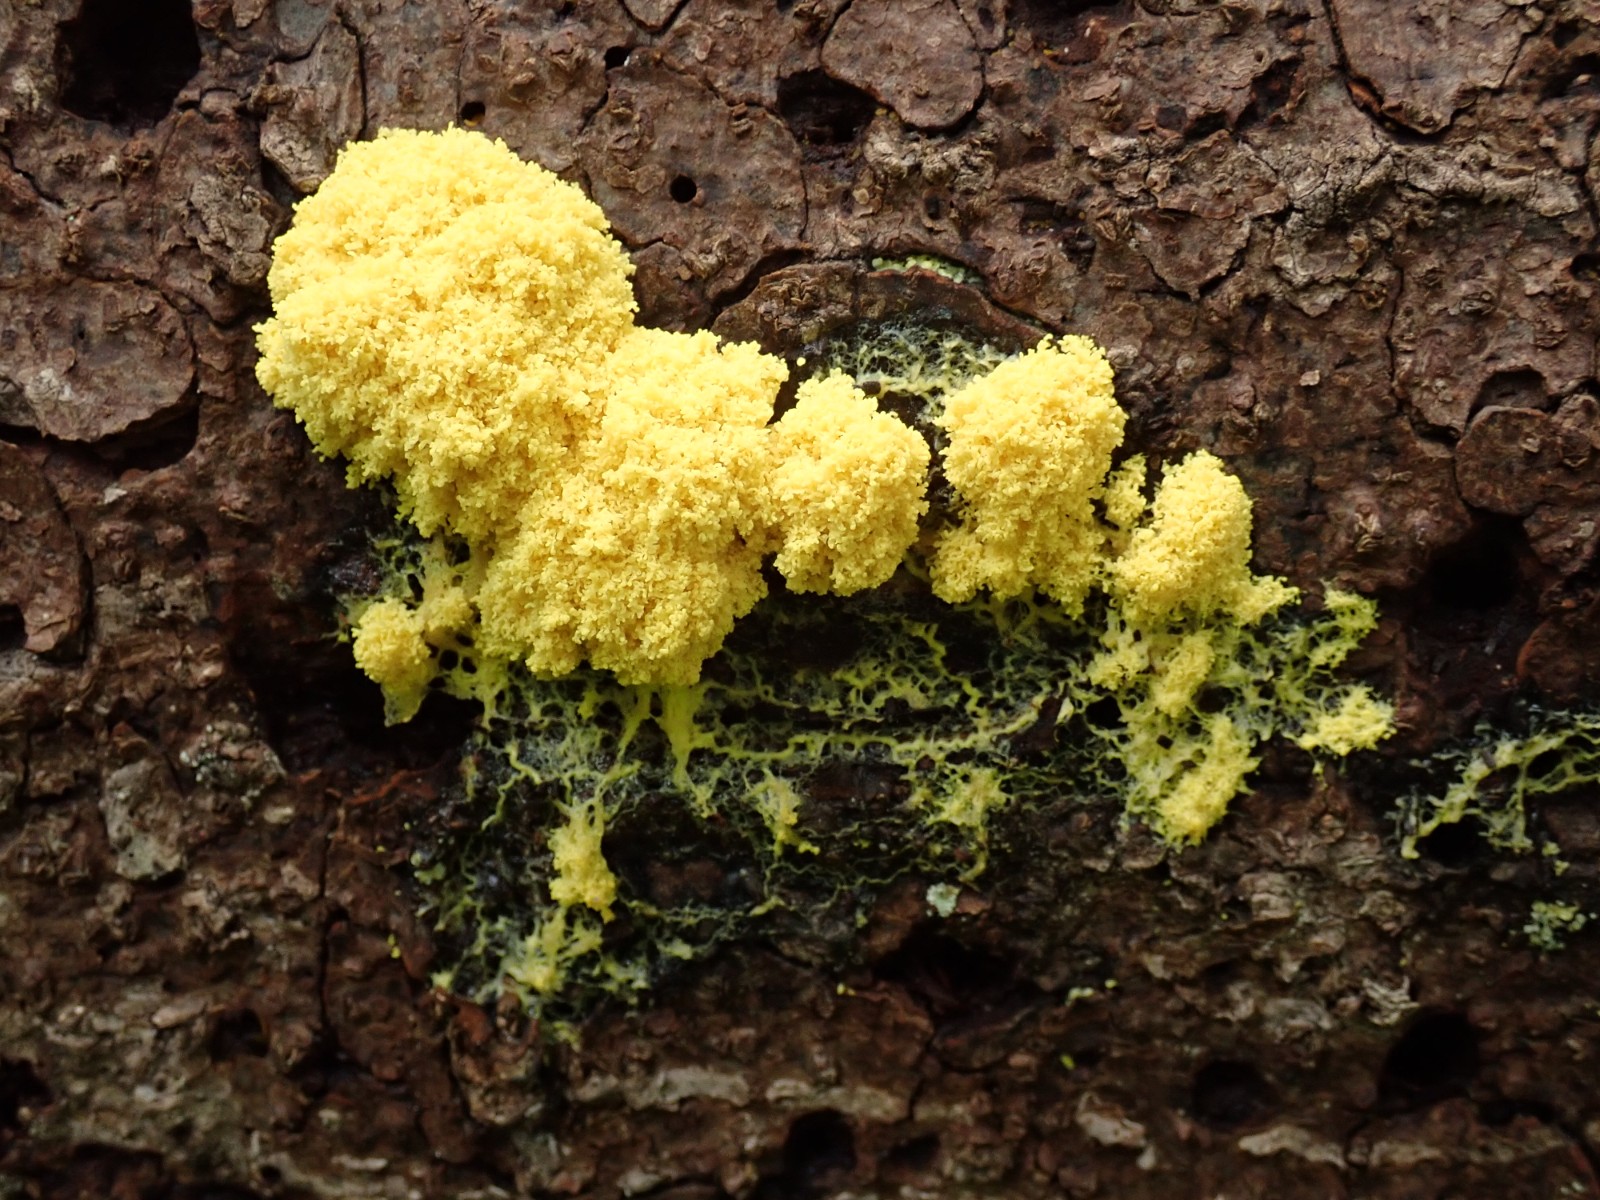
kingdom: Protozoa
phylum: Mycetozoa
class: Myxomycetes
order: Physarales
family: Physaraceae
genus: Fuligo
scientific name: Fuligo septica
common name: gul troldsmør
